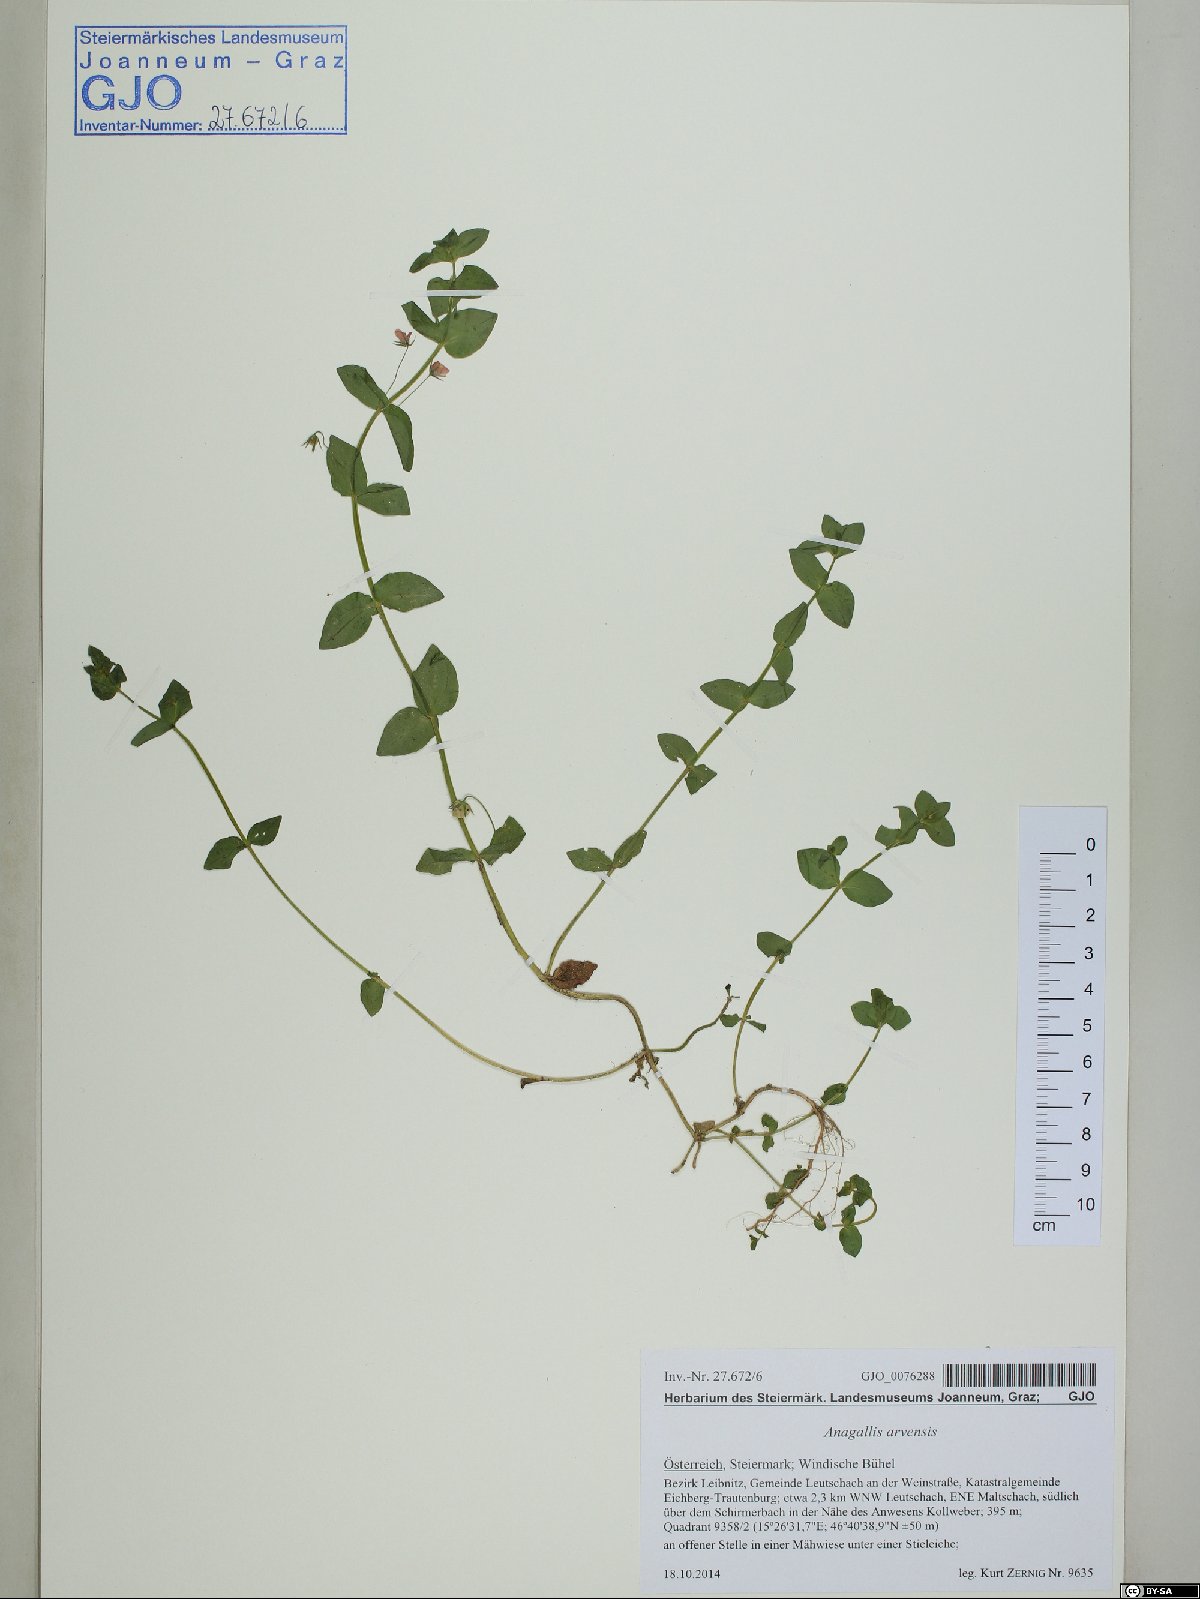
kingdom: Plantae
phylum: Tracheophyta
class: Magnoliopsida
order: Ericales
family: Primulaceae
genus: Lysimachia
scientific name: Lysimachia arvensis
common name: Scarlet pimpernel
